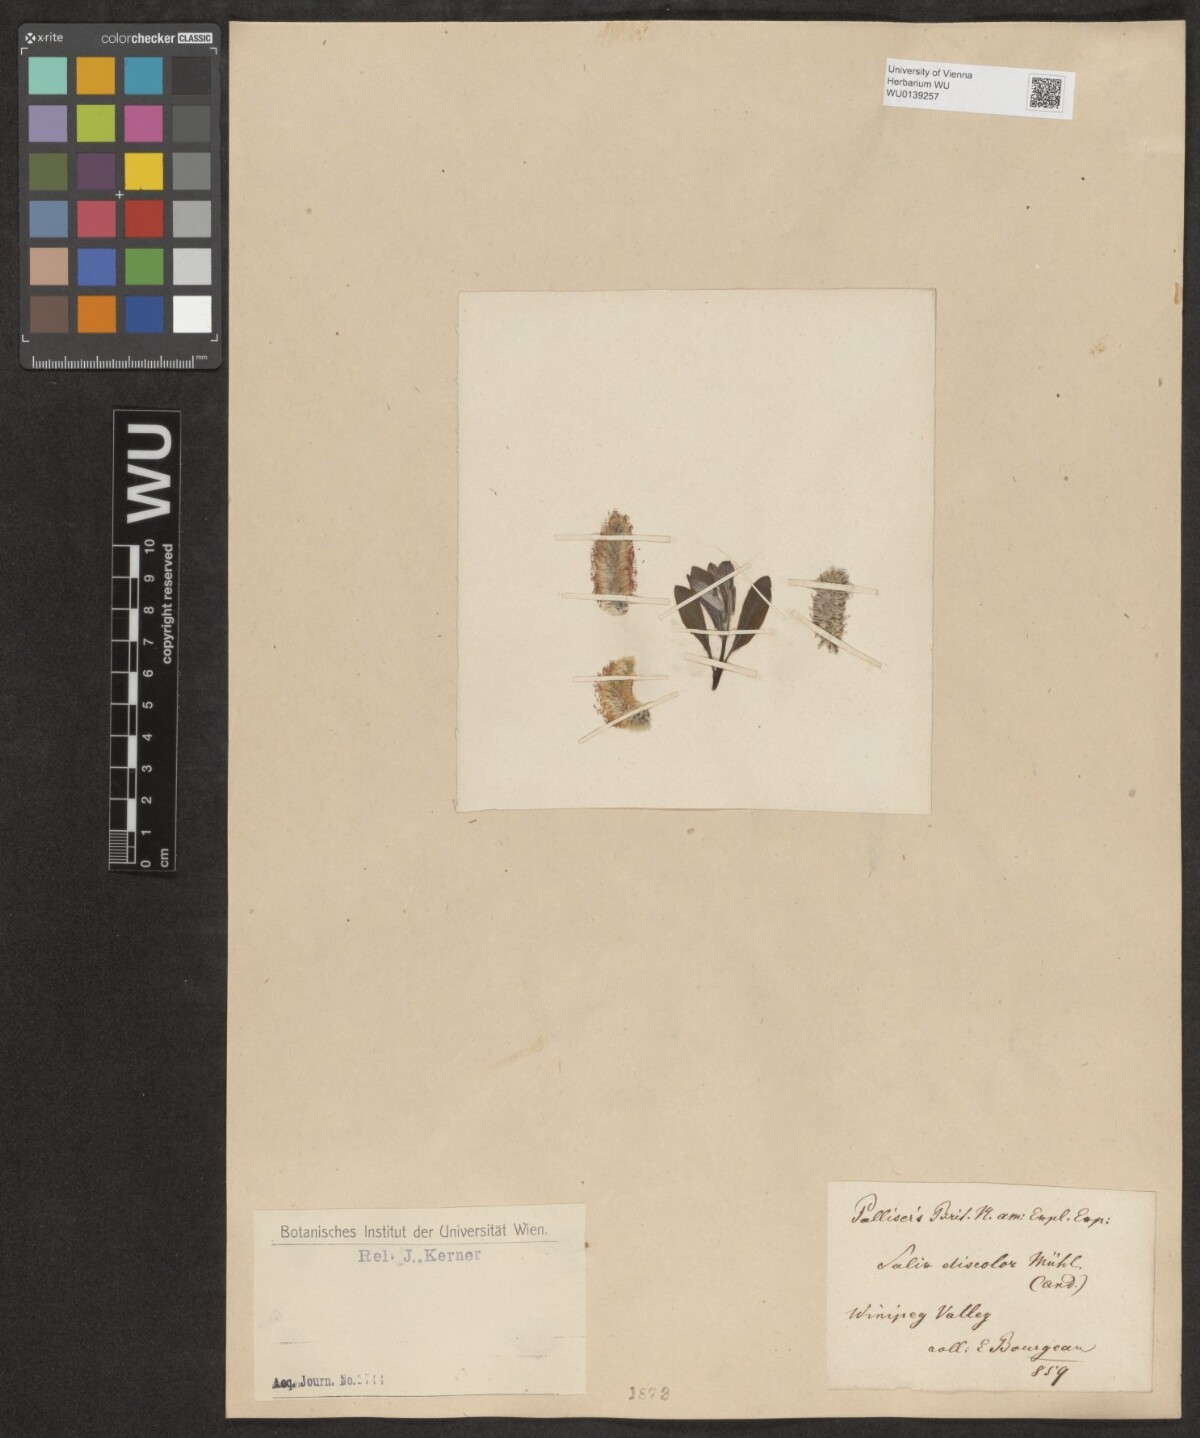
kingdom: Plantae
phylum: Tracheophyta
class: Magnoliopsida
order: Malpighiales
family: Salicaceae
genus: Salix
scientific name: Salix repens
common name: Creeping willow
